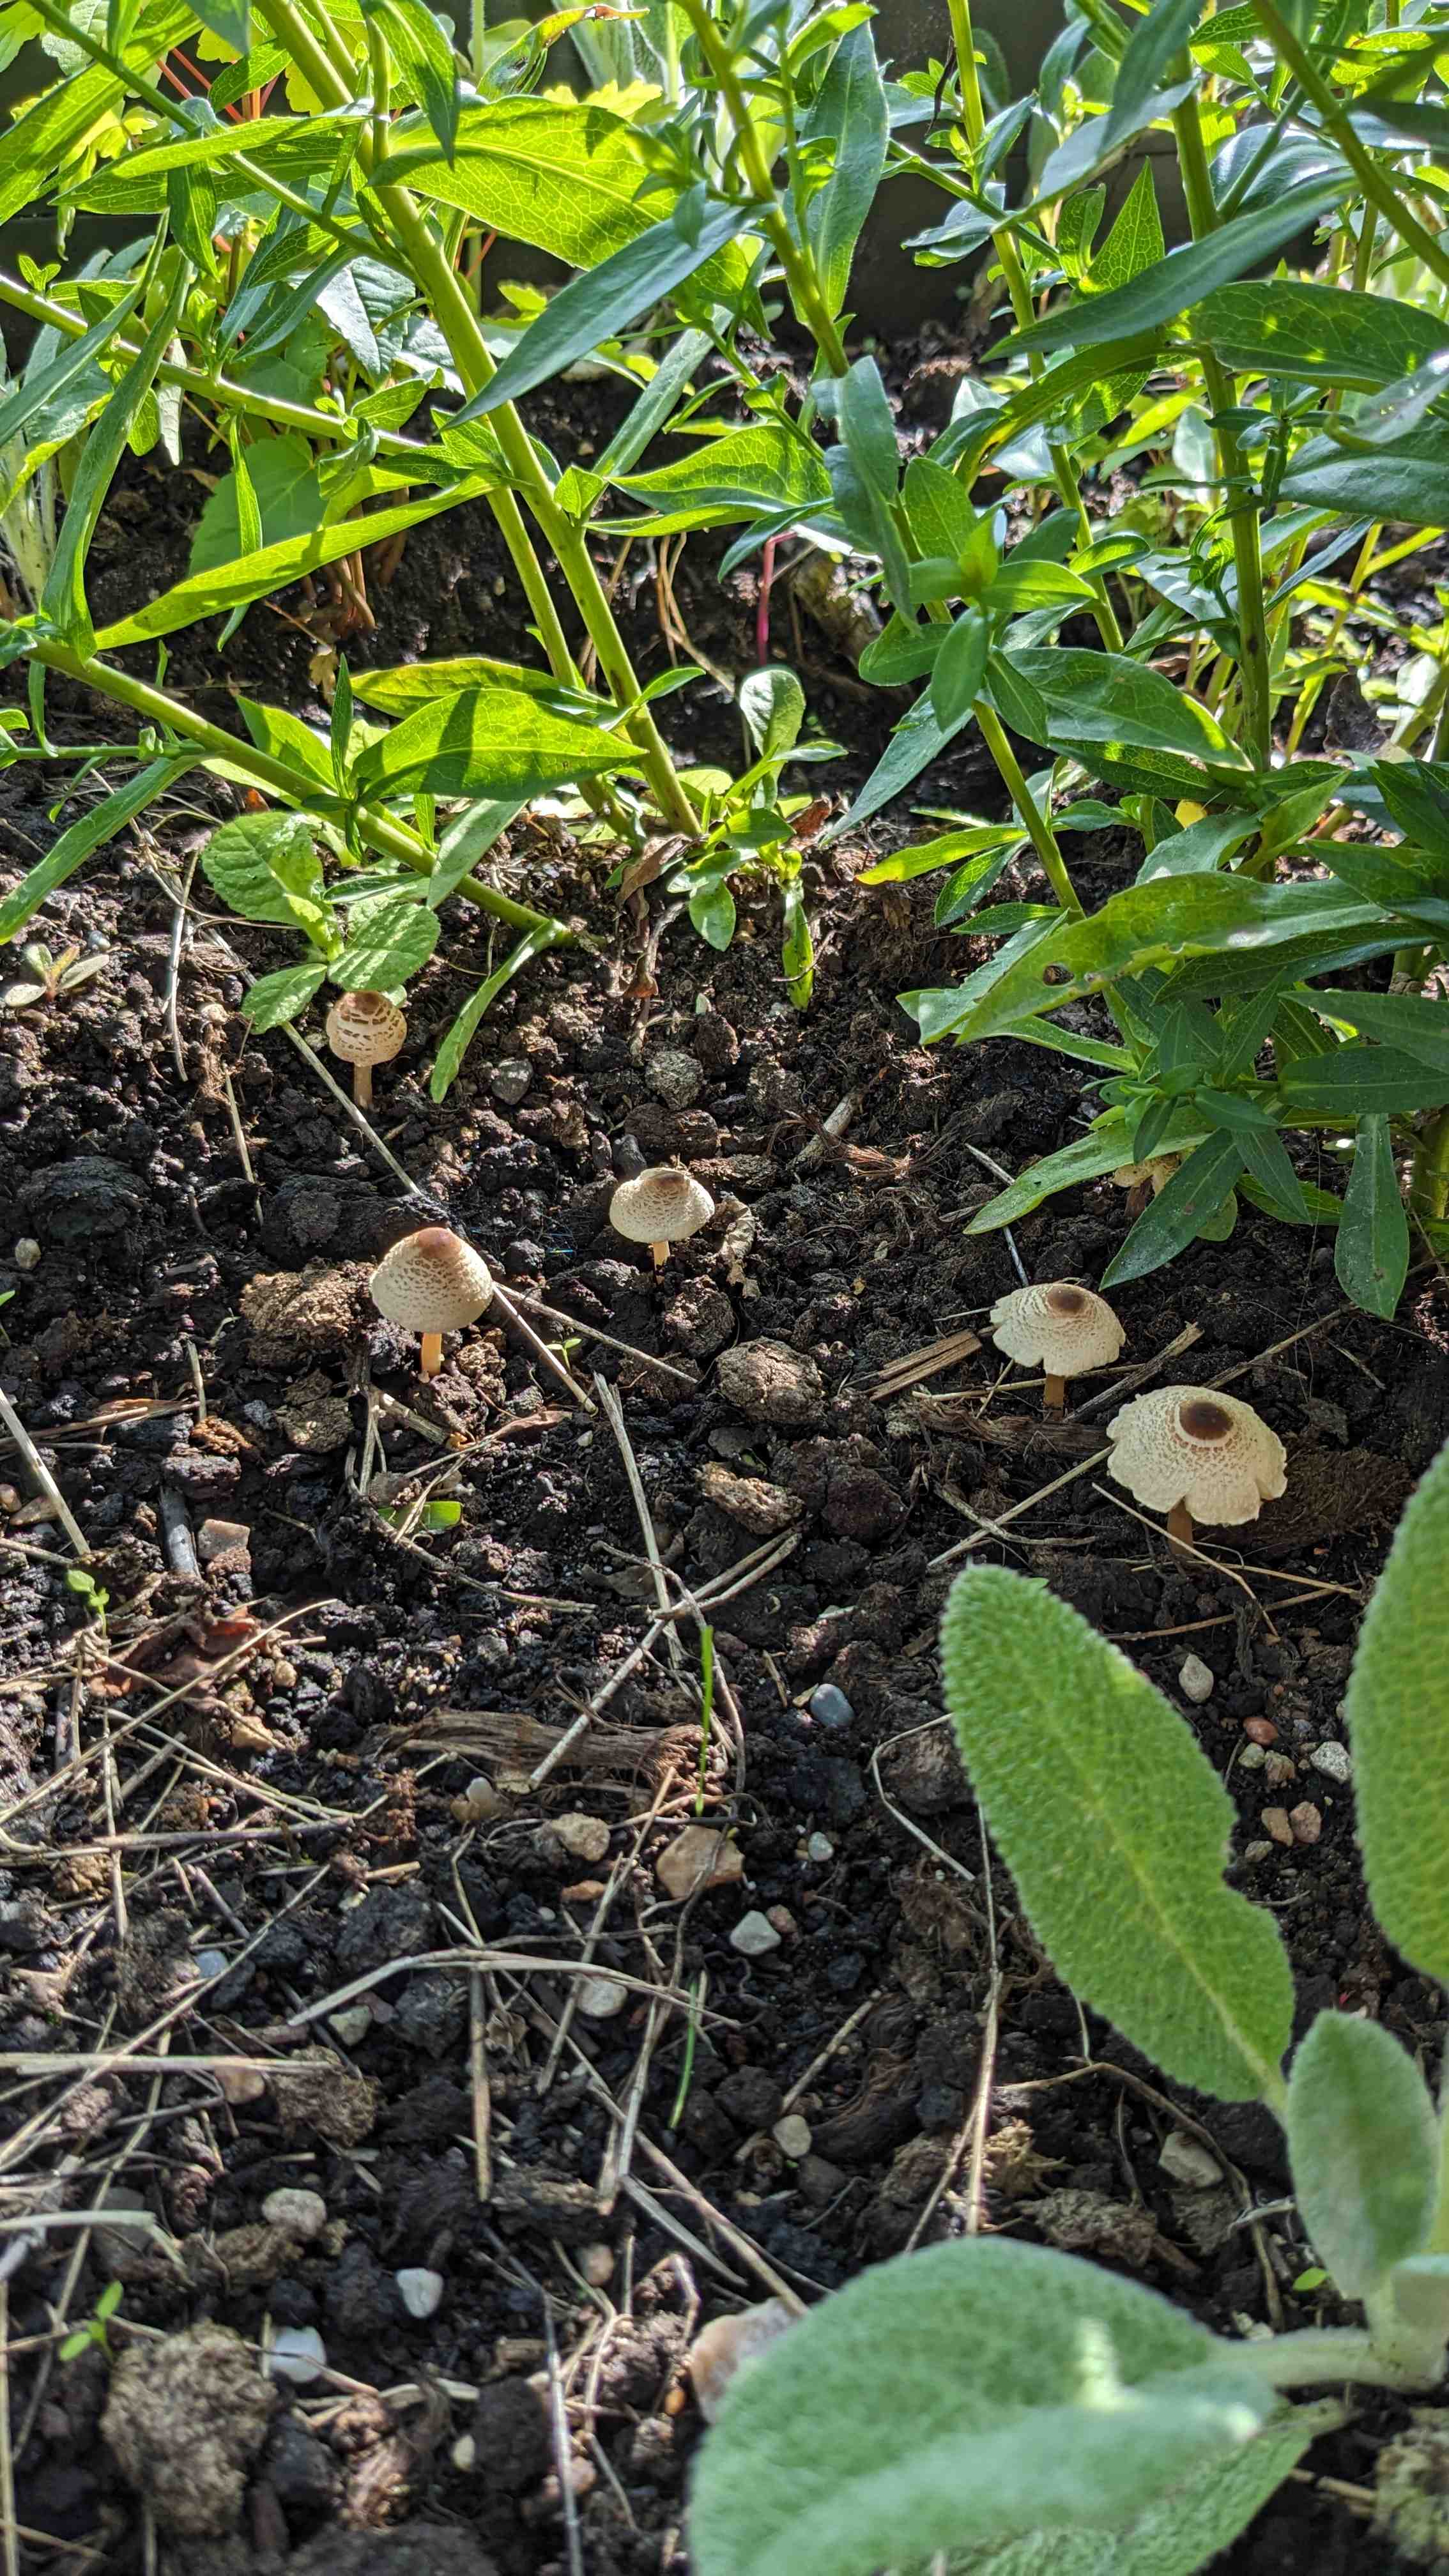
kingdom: Fungi
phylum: Basidiomycota
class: Agaricomycetes
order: Agaricales
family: Agaricaceae
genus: Lepiota
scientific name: Lepiota
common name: parasolhat
